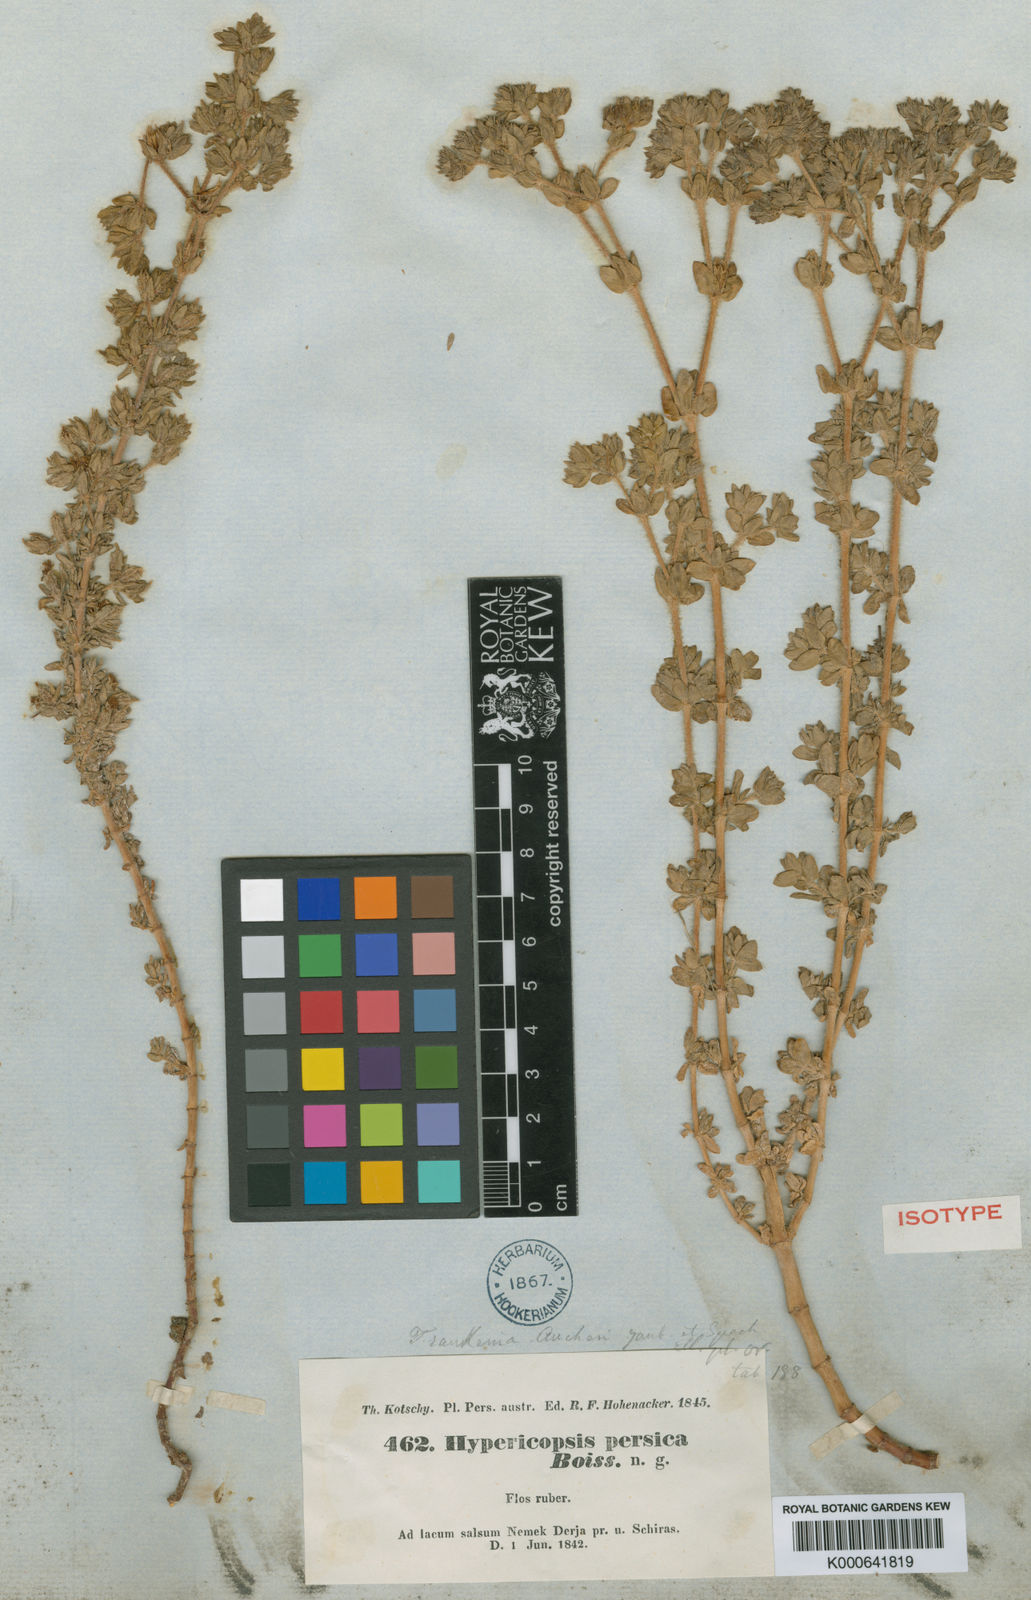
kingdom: Plantae
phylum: Tracheophyta
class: Magnoliopsida
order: Caryophyllales
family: Frankeniaceae
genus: Frankenia
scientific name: Frankenia persica
